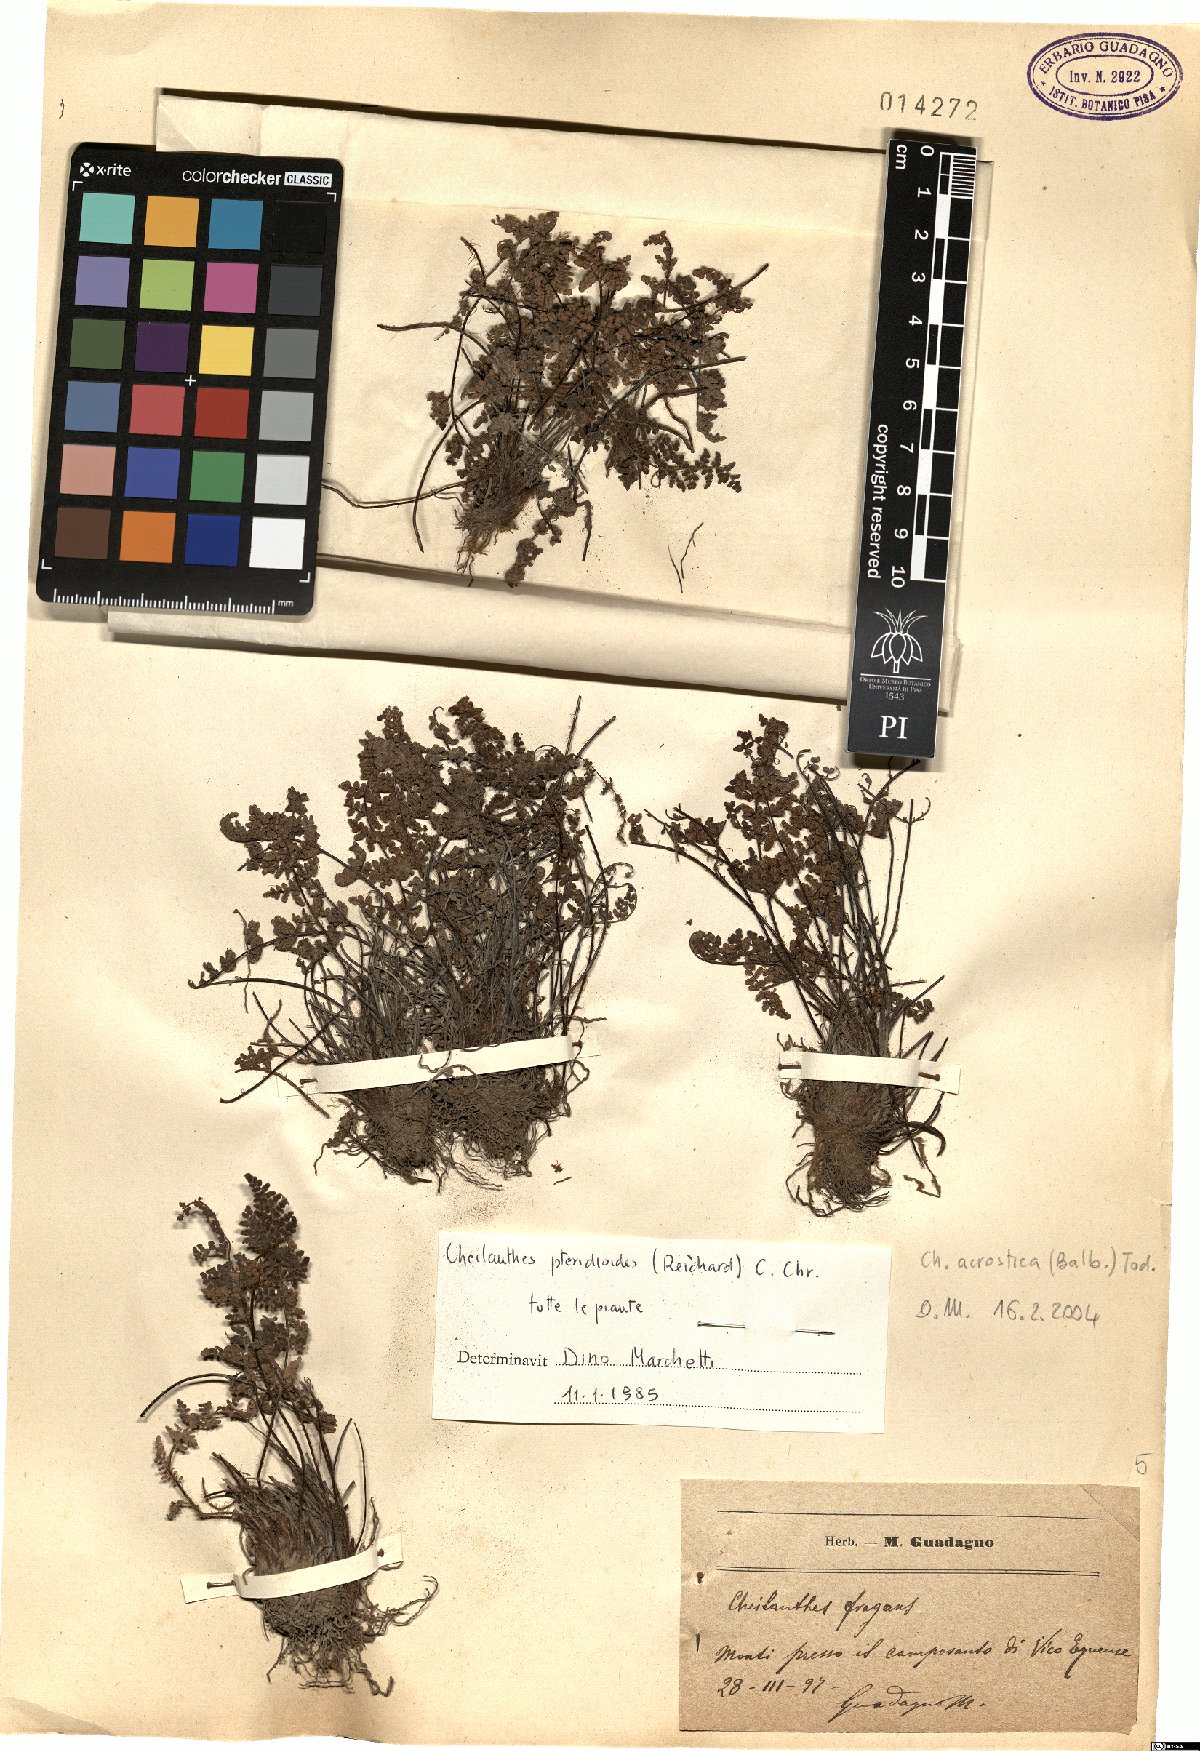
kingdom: Plantae
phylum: Tracheophyta
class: Polypodiopsida
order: Polypodiales
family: Pteridaceae
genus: Oeosporangium
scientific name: Oeosporangium pteridioides
